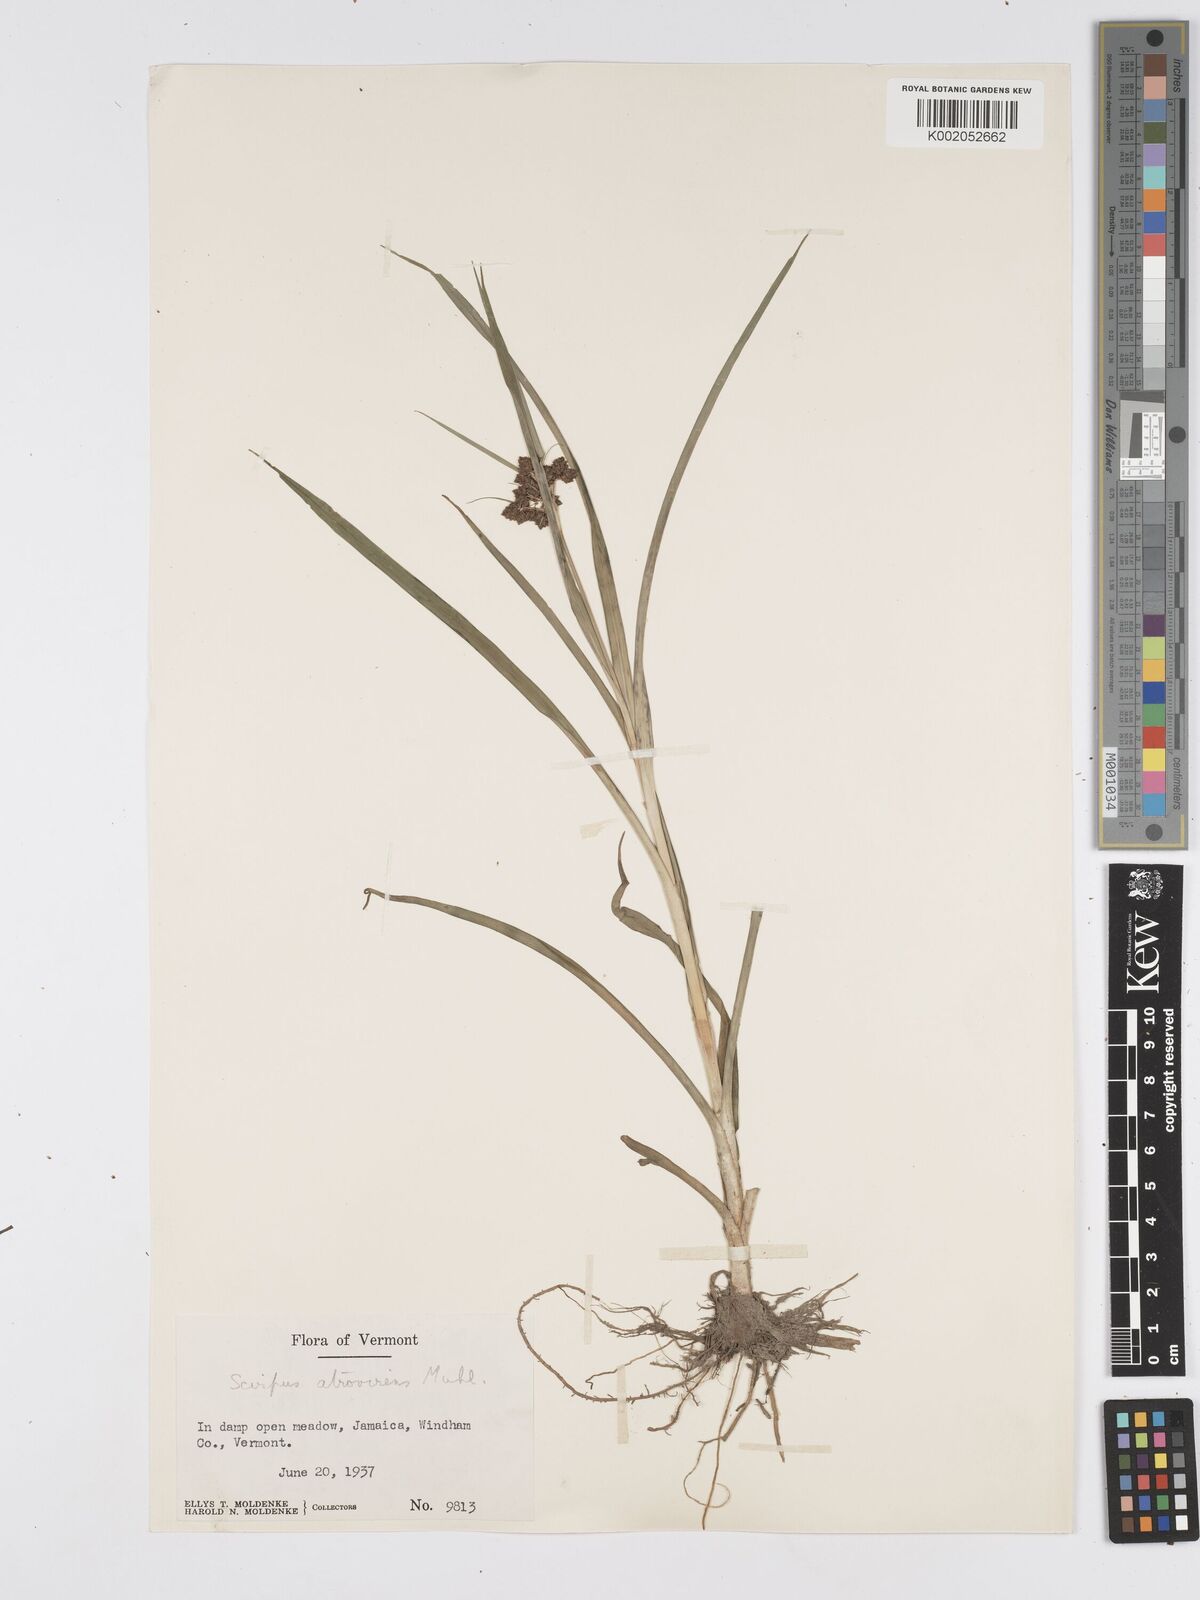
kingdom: Plantae
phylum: Tracheophyta
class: Liliopsida
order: Poales
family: Cyperaceae
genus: Scirpus
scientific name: Scirpus atrovirens
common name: Black bulrush
